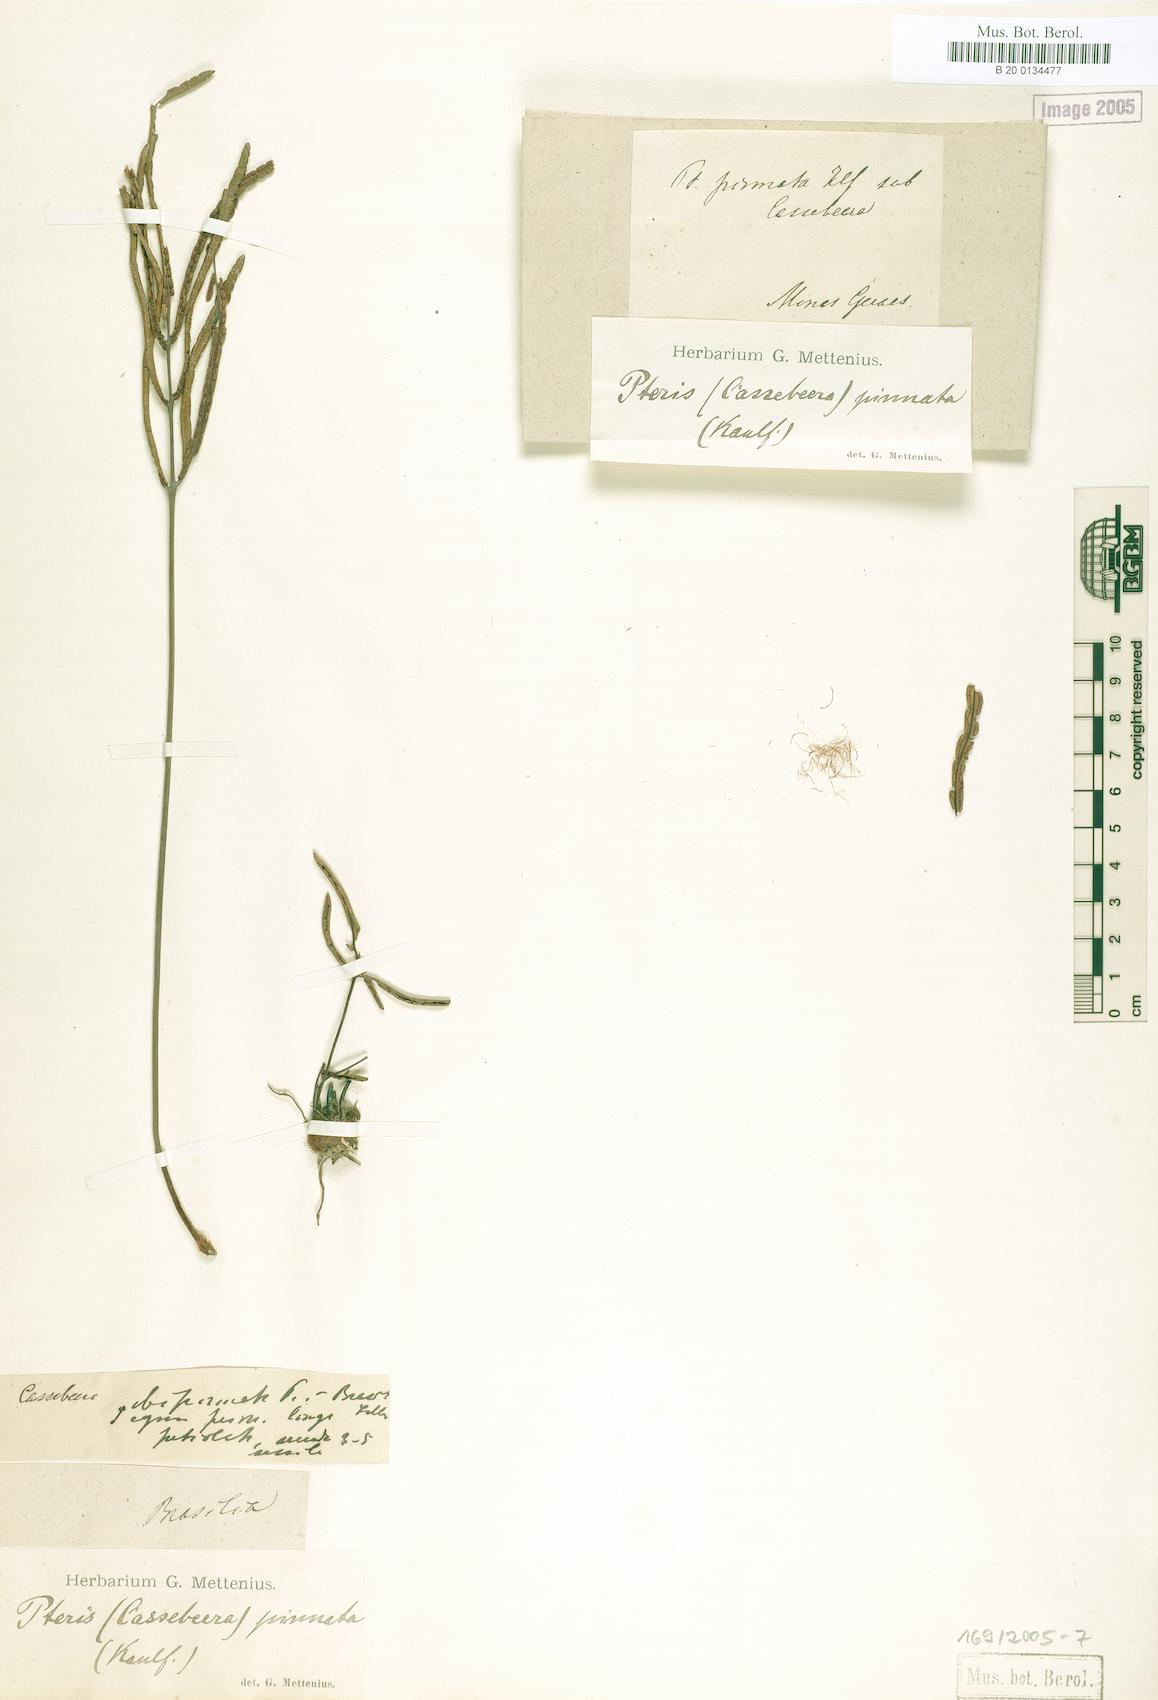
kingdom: Plantae
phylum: Tracheophyta
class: Polypodiopsida
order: Polypodiales
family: Pteridaceae
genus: Ormopteris
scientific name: Ormopteris pinnata
